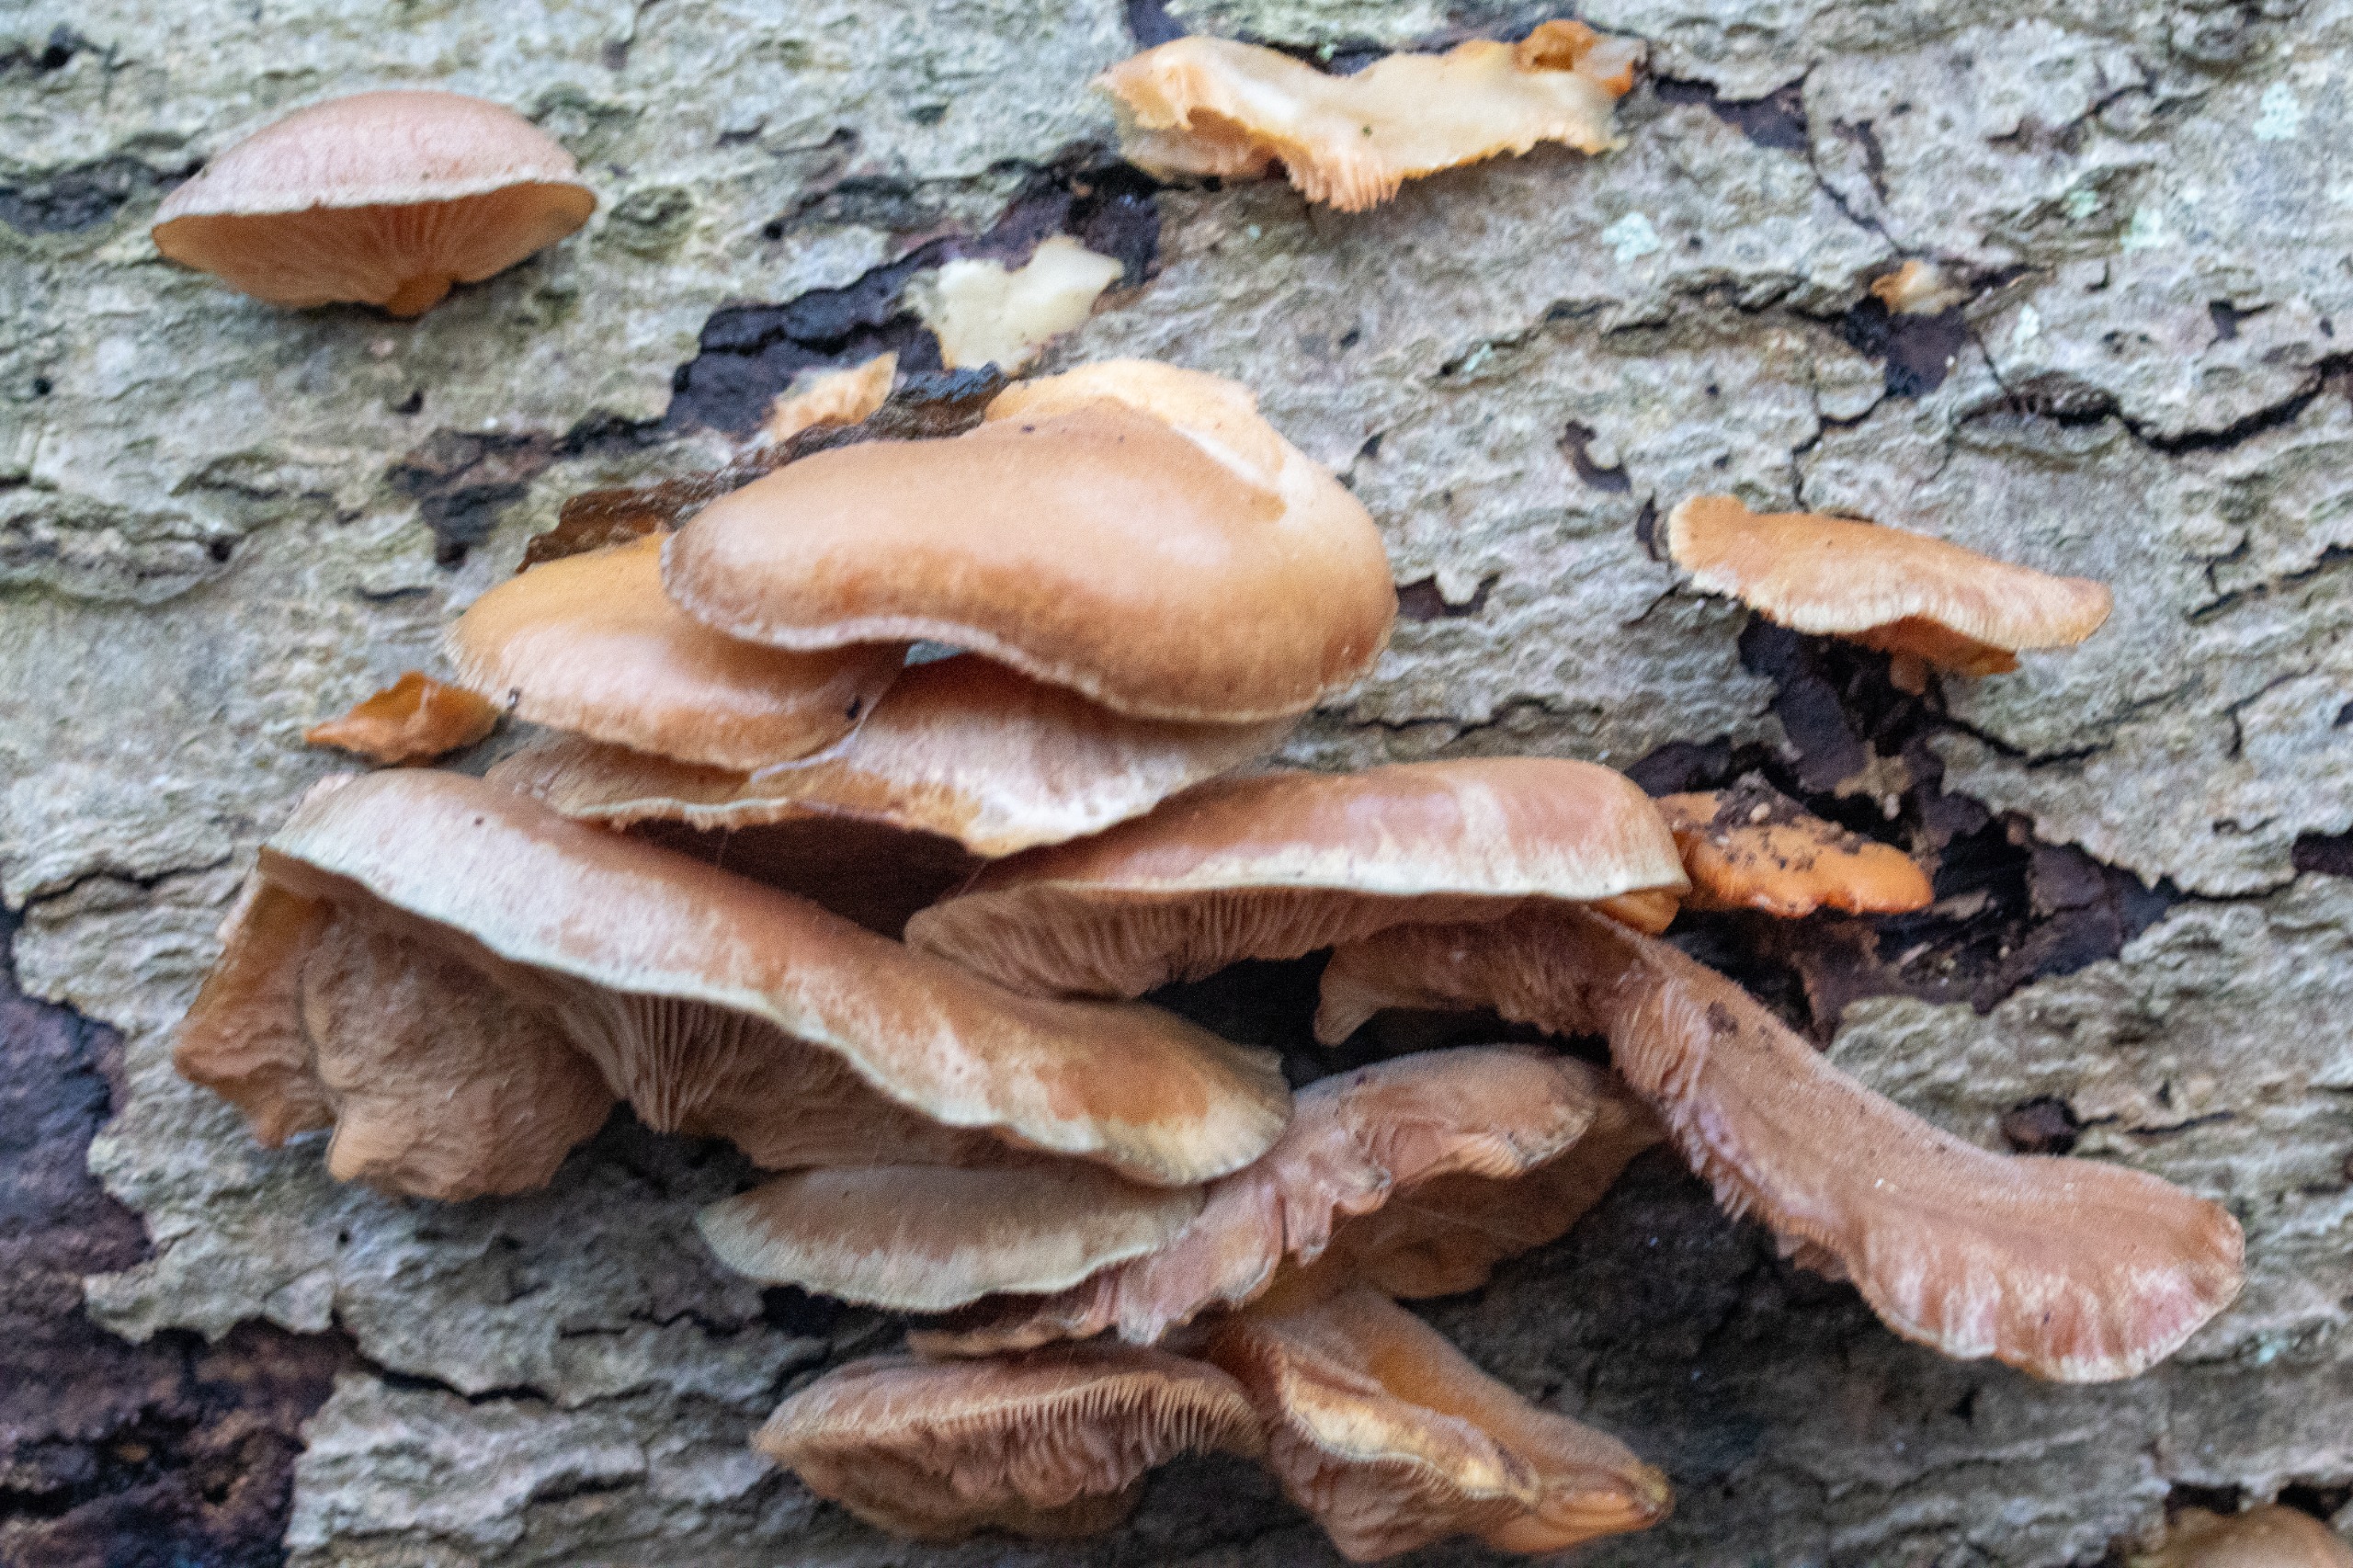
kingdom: Fungi
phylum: Basidiomycota
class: Agaricomycetes
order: Agaricales
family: Sarcomyxaceae
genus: Sarcomyxa
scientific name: Sarcomyxa serotina
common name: Gummihat
